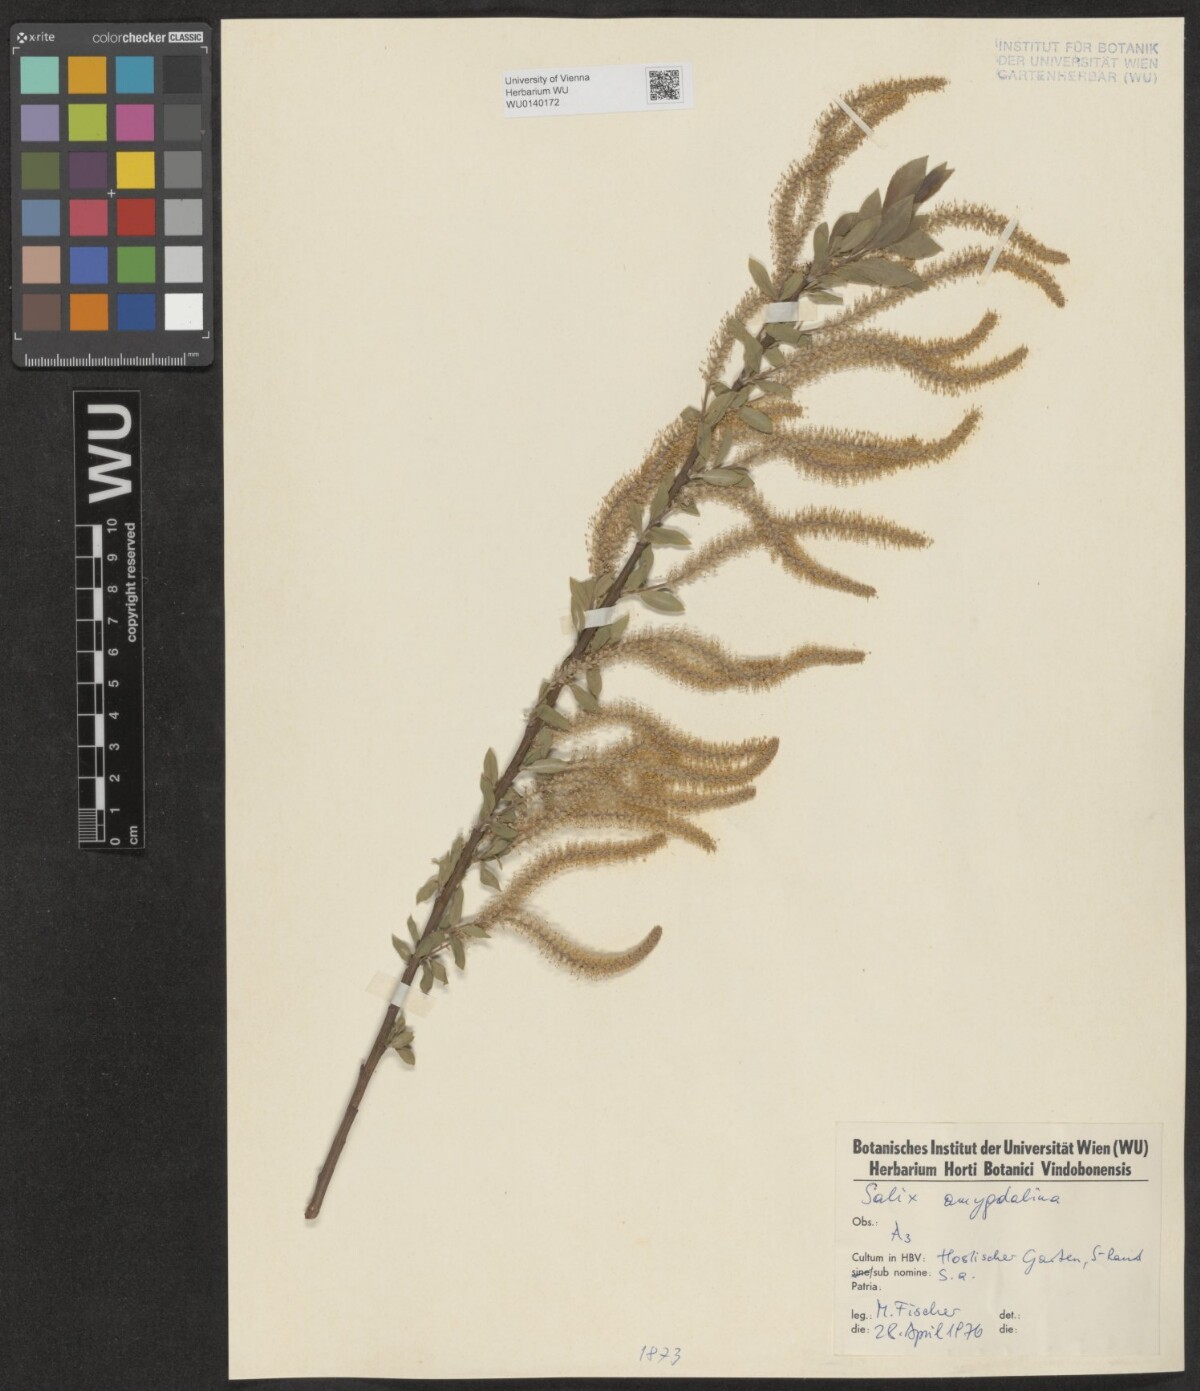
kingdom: Plantae
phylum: Tracheophyta
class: Magnoliopsida
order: Malpighiales
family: Salicaceae
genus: Salix
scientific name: Salix triandra
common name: Almond willow
